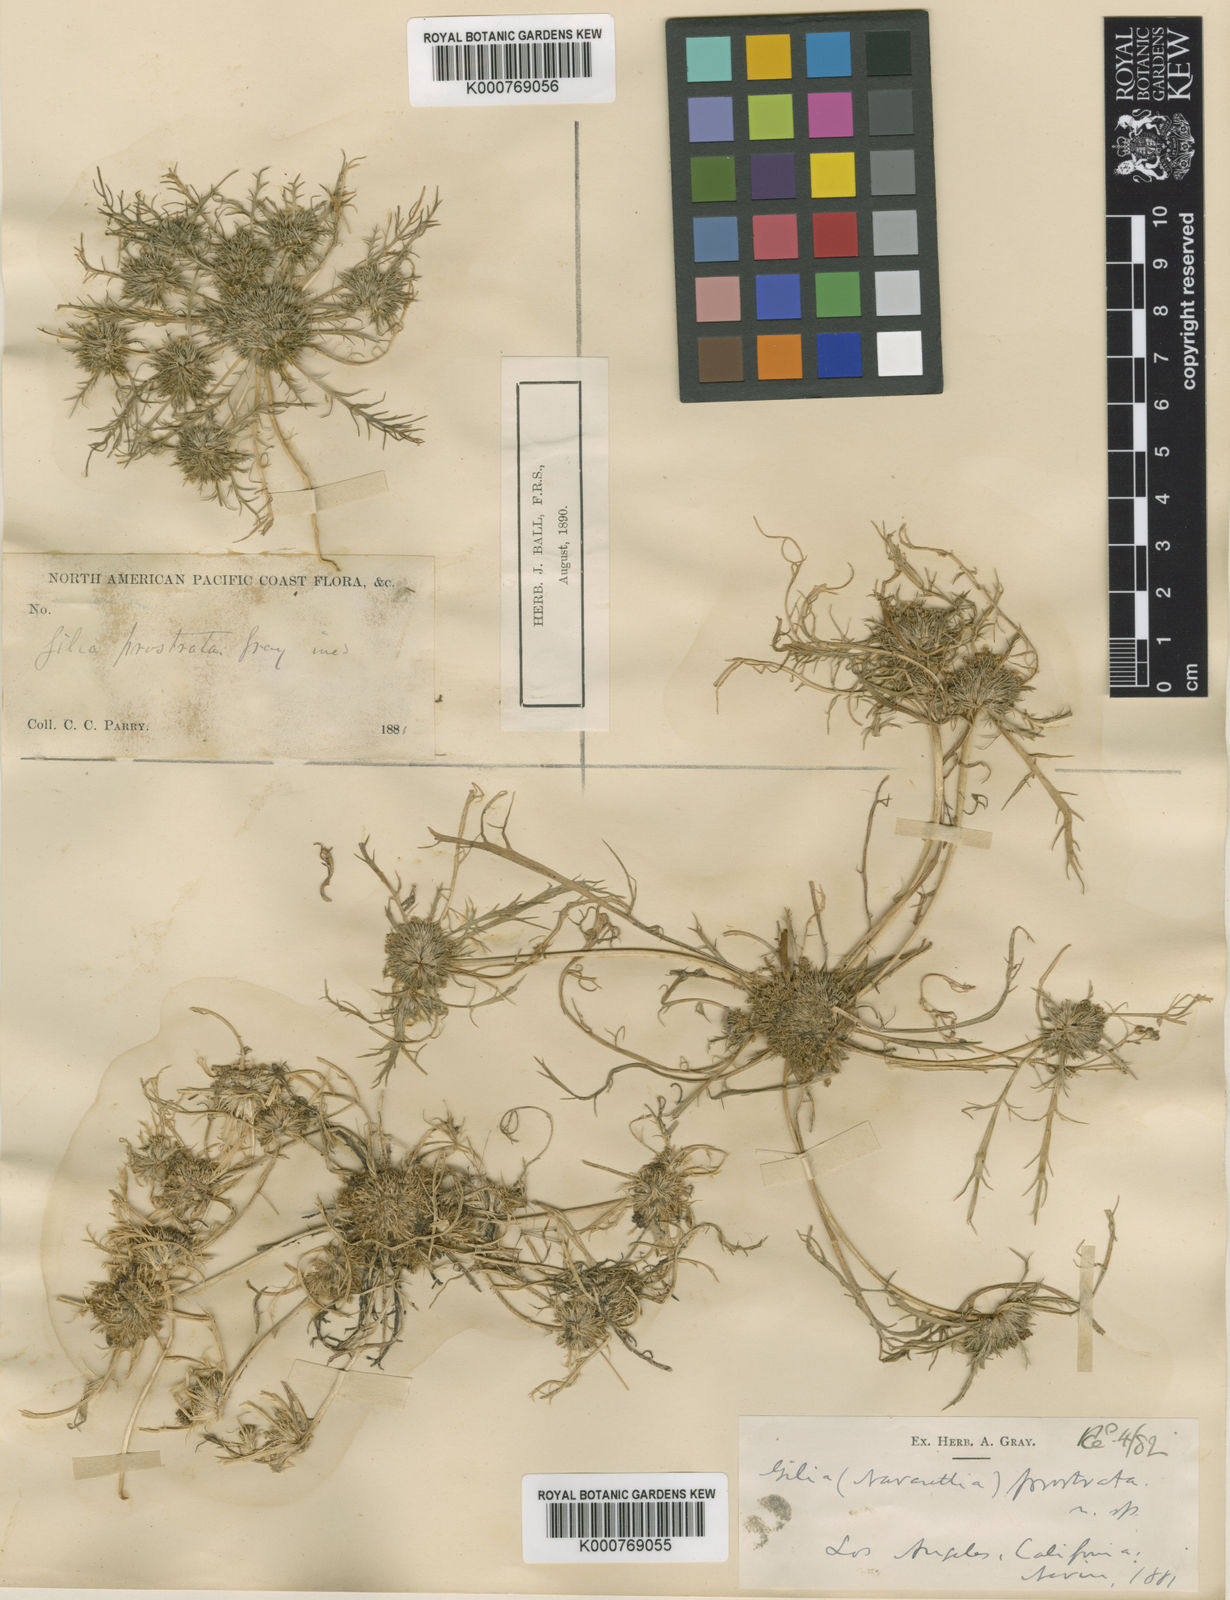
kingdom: Plantae
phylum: Tracheophyta
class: Magnoliopsida
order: Ericales
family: Polemoniaceae
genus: Navarretia
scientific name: Navarretia prostrata
